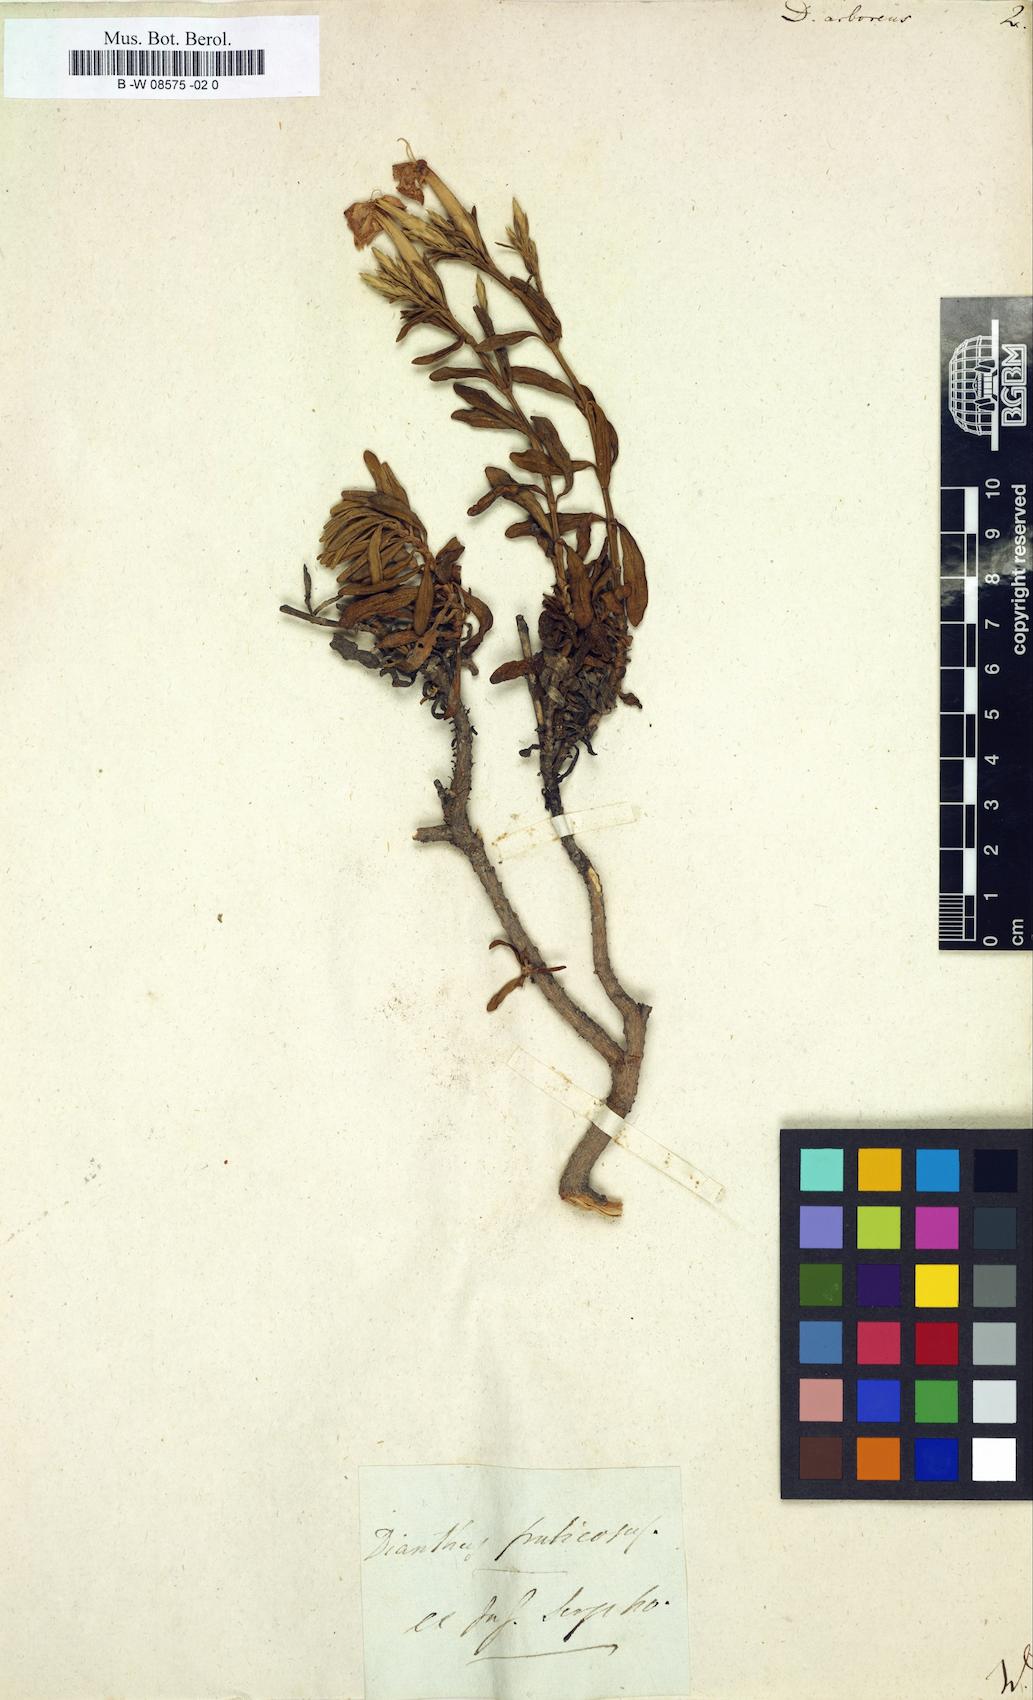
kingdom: Plantae
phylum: Tracheophyta
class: Magnoliopsida
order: Caryophyllales
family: Caryophyllaceae
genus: Dianthus
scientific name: Dianthus juniperinus
